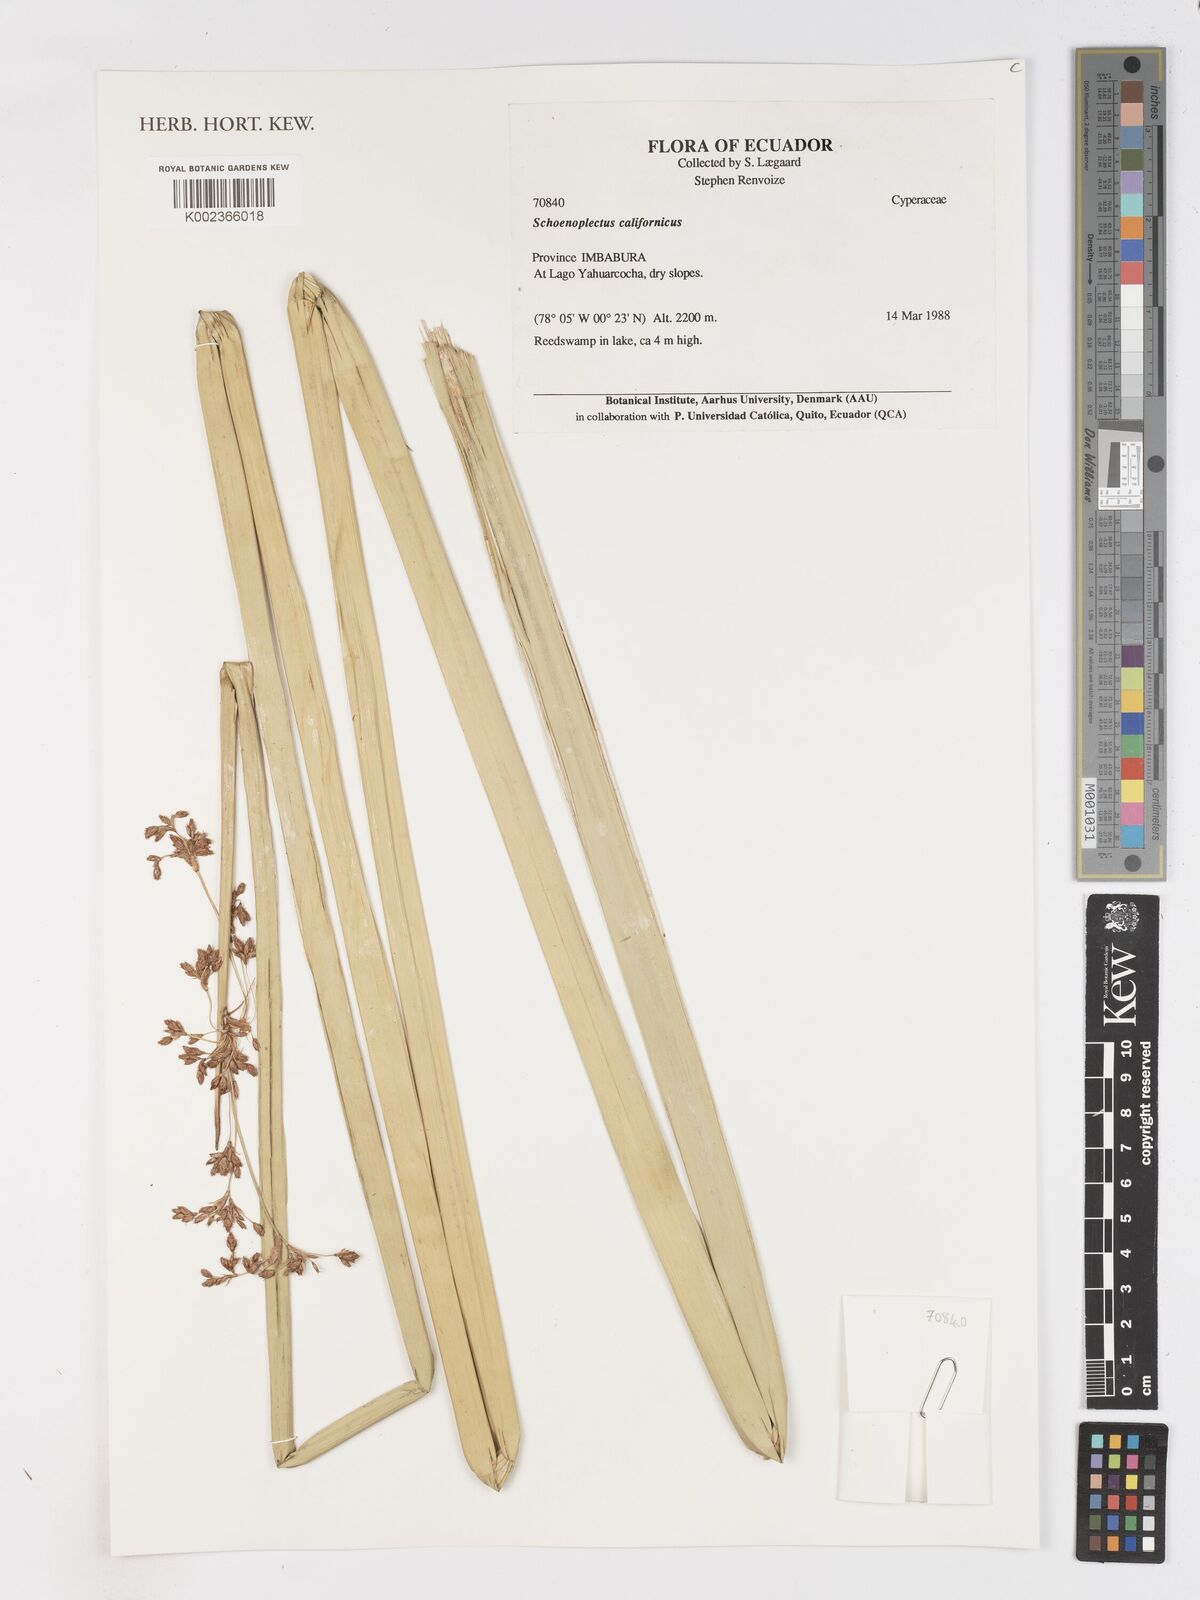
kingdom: Plantae
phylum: Tracheophyta
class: Liliopsida
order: Poales
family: Cyperaceae
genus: Schoenoplectus
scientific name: Schoenoplectus californicus
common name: California bulrush
